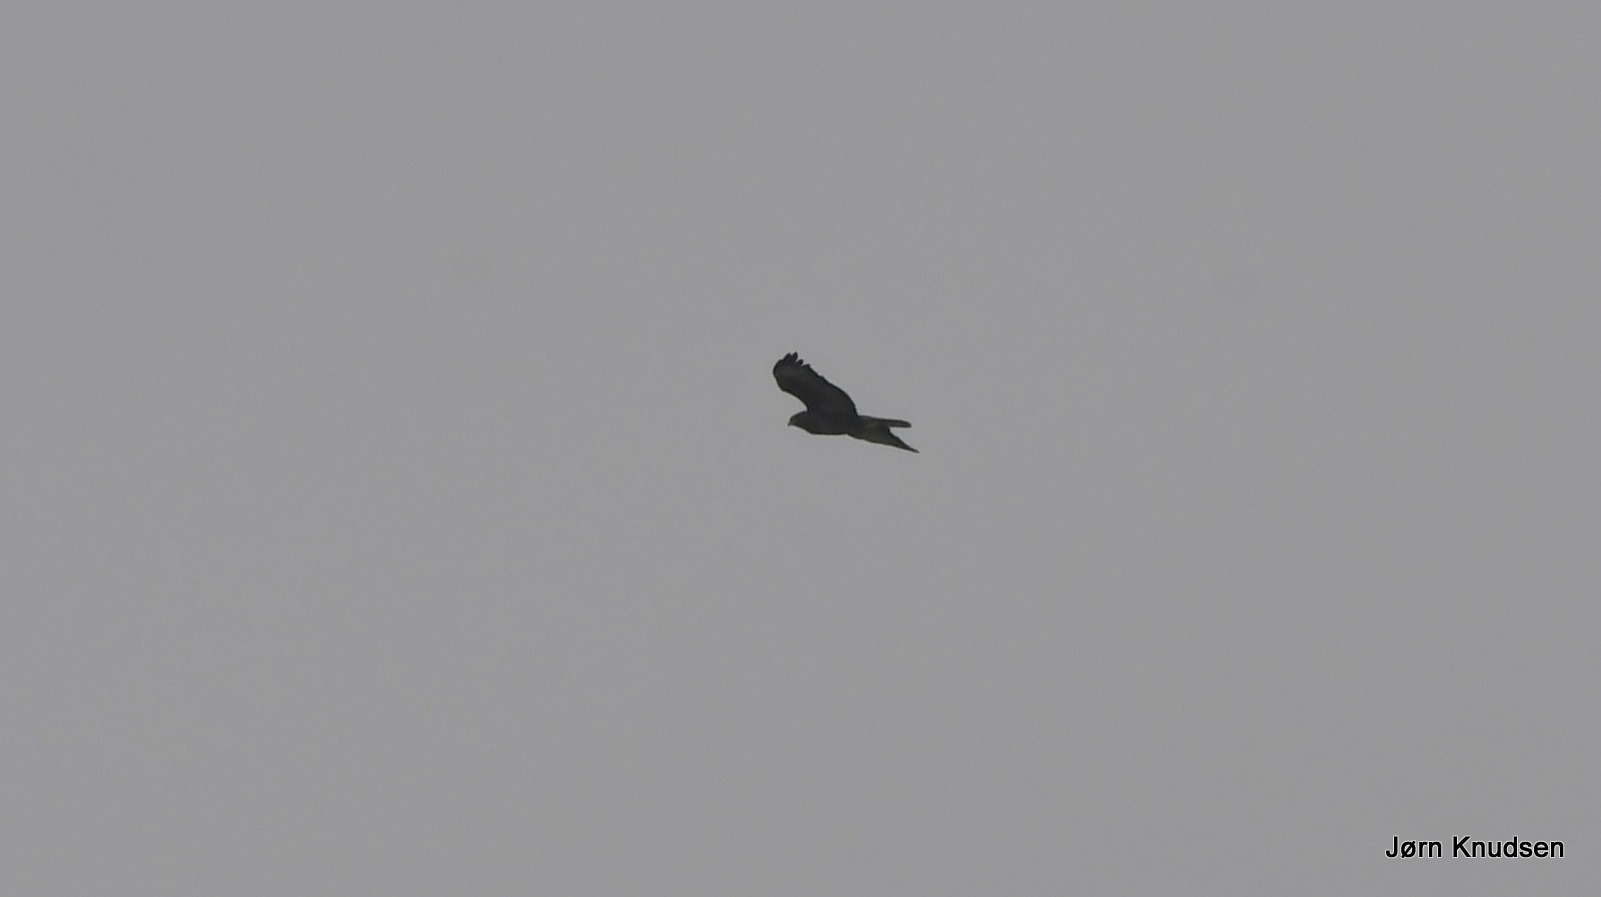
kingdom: Animalia
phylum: Chordata
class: Aves
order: Accipitriformes
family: Accipitridae
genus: Buteo
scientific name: Buteo buteo
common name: Musvåge
